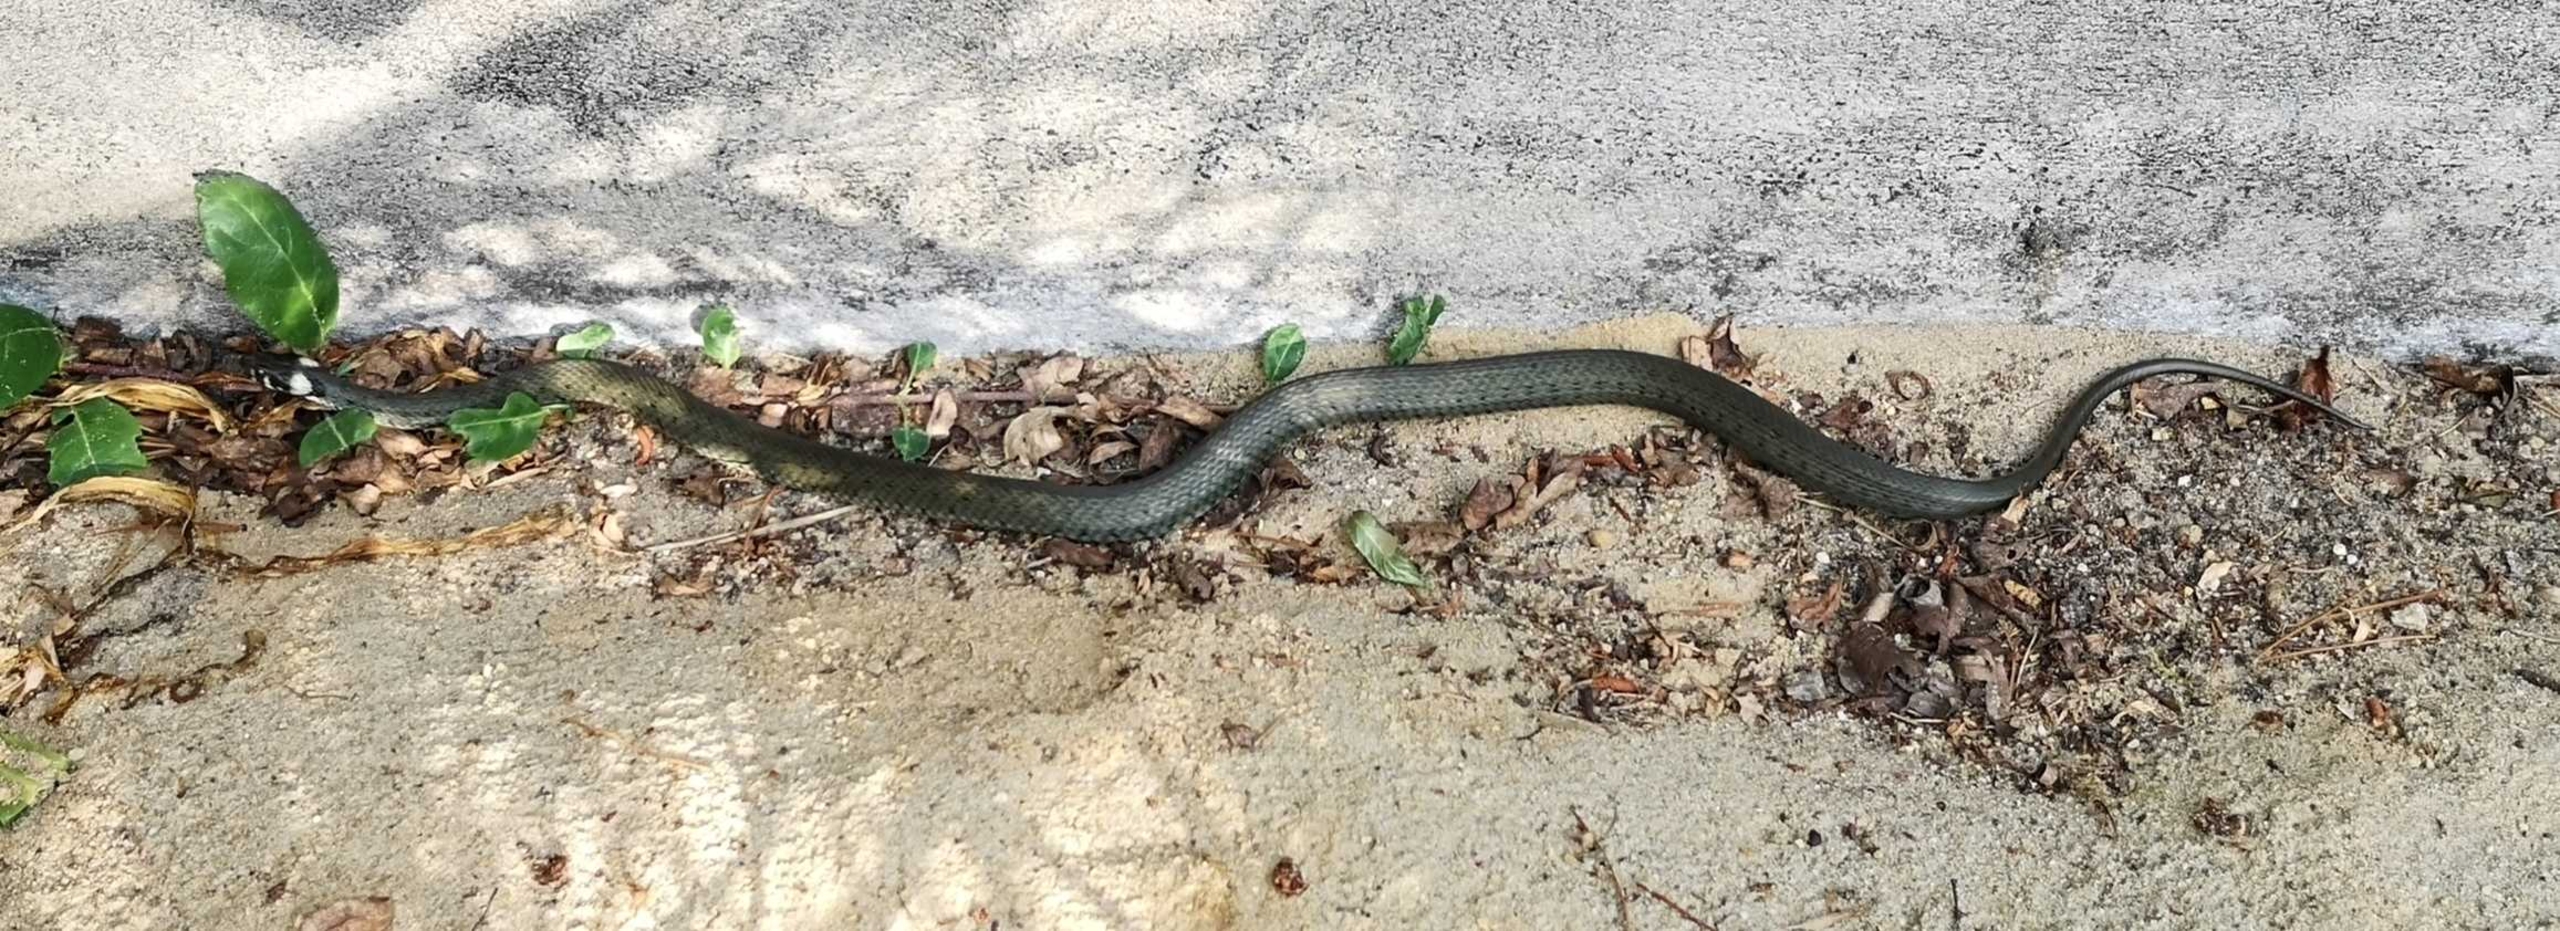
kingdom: Animalia
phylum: Chordata
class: Squamata
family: Colubridae
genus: Natrix
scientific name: Natrix natrix
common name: Snog
